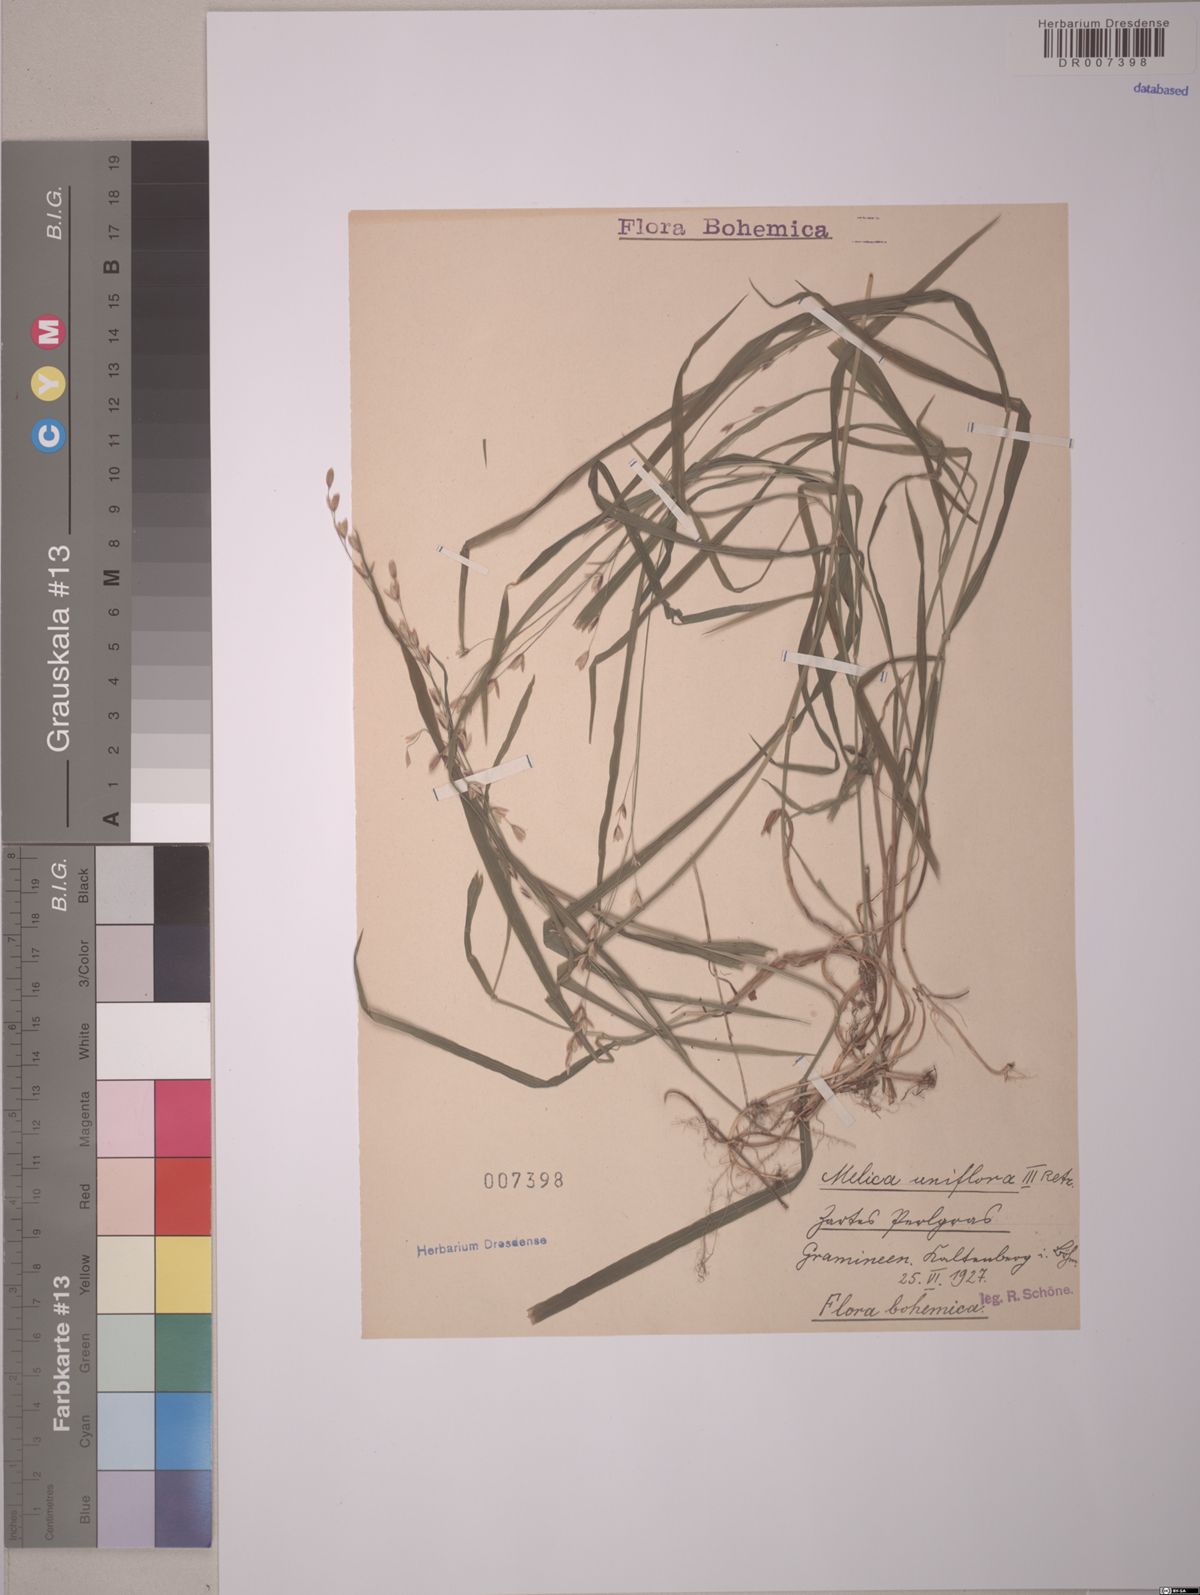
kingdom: Plantae
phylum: Tracheophyta
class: Liliopsida
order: Poales
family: Poaceae
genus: Melica
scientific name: Melica uniflora
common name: Wood melick
